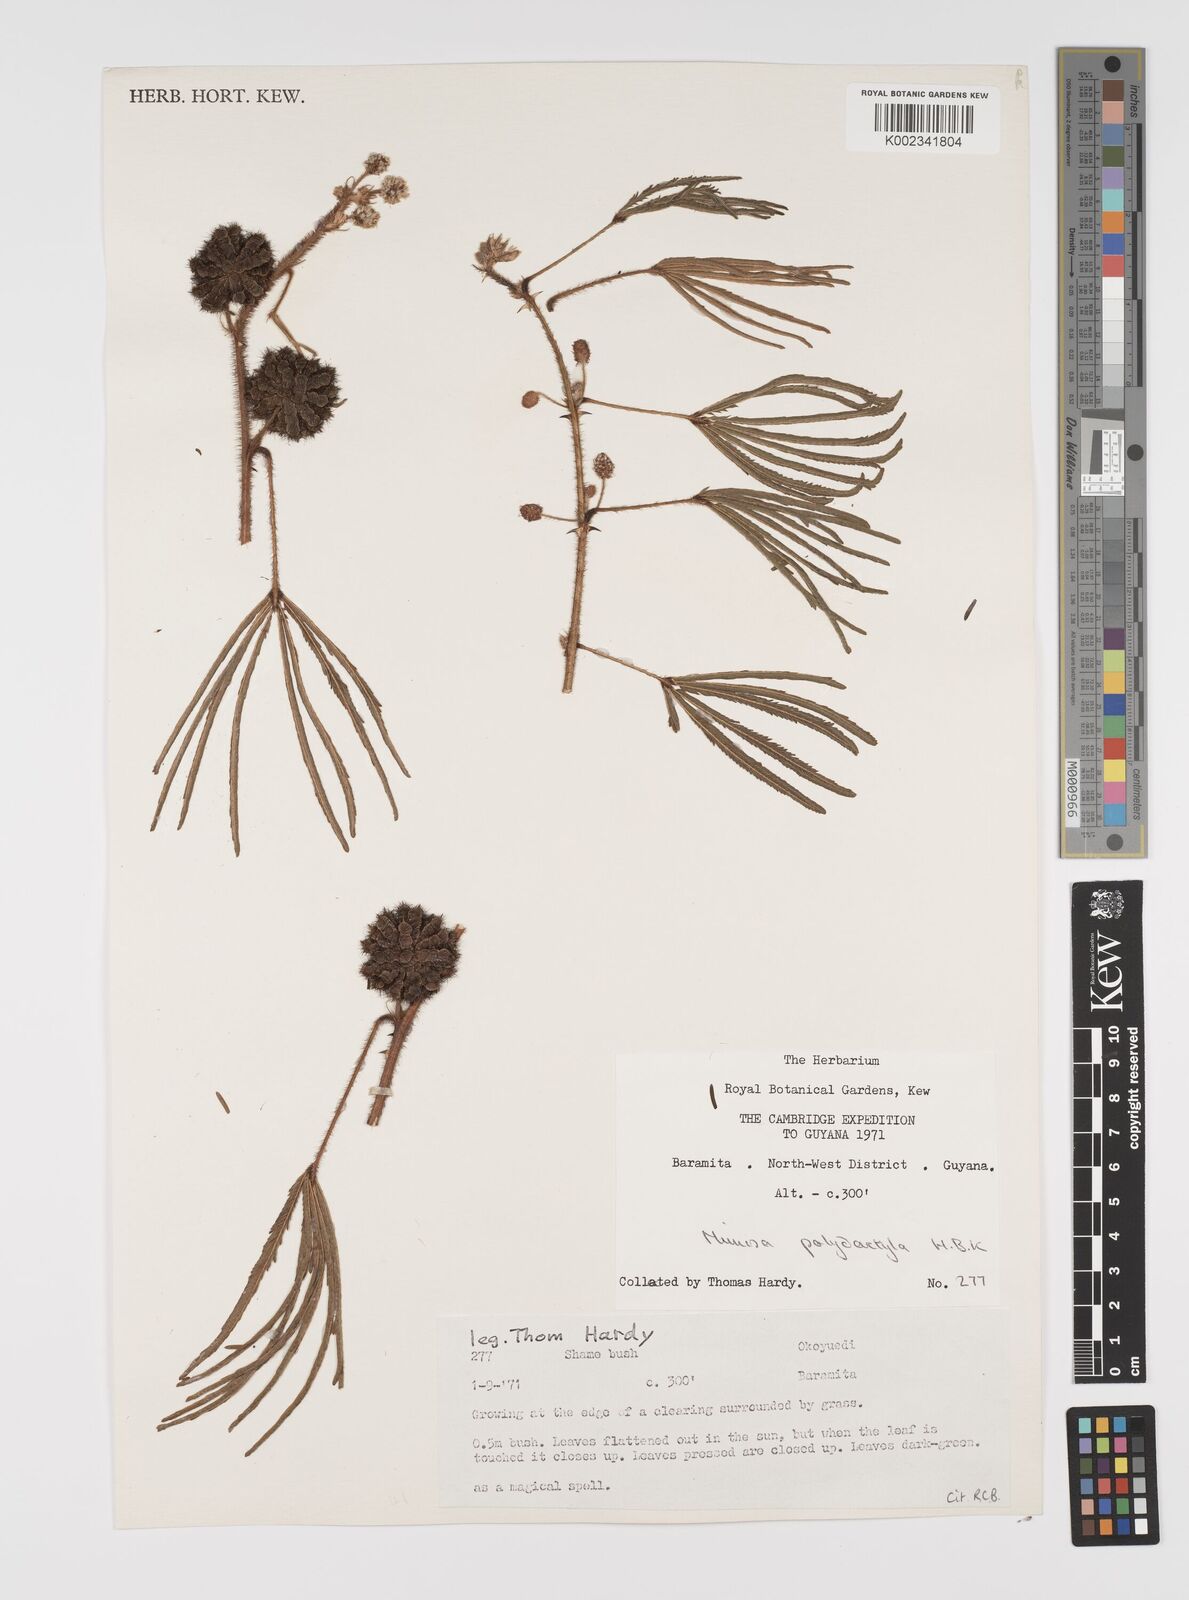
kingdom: Plantae
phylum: Tracheophyta
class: Magnoliopsida
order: Fabales
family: Fabaceae
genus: Mimosa
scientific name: Mimosa polydactyla
